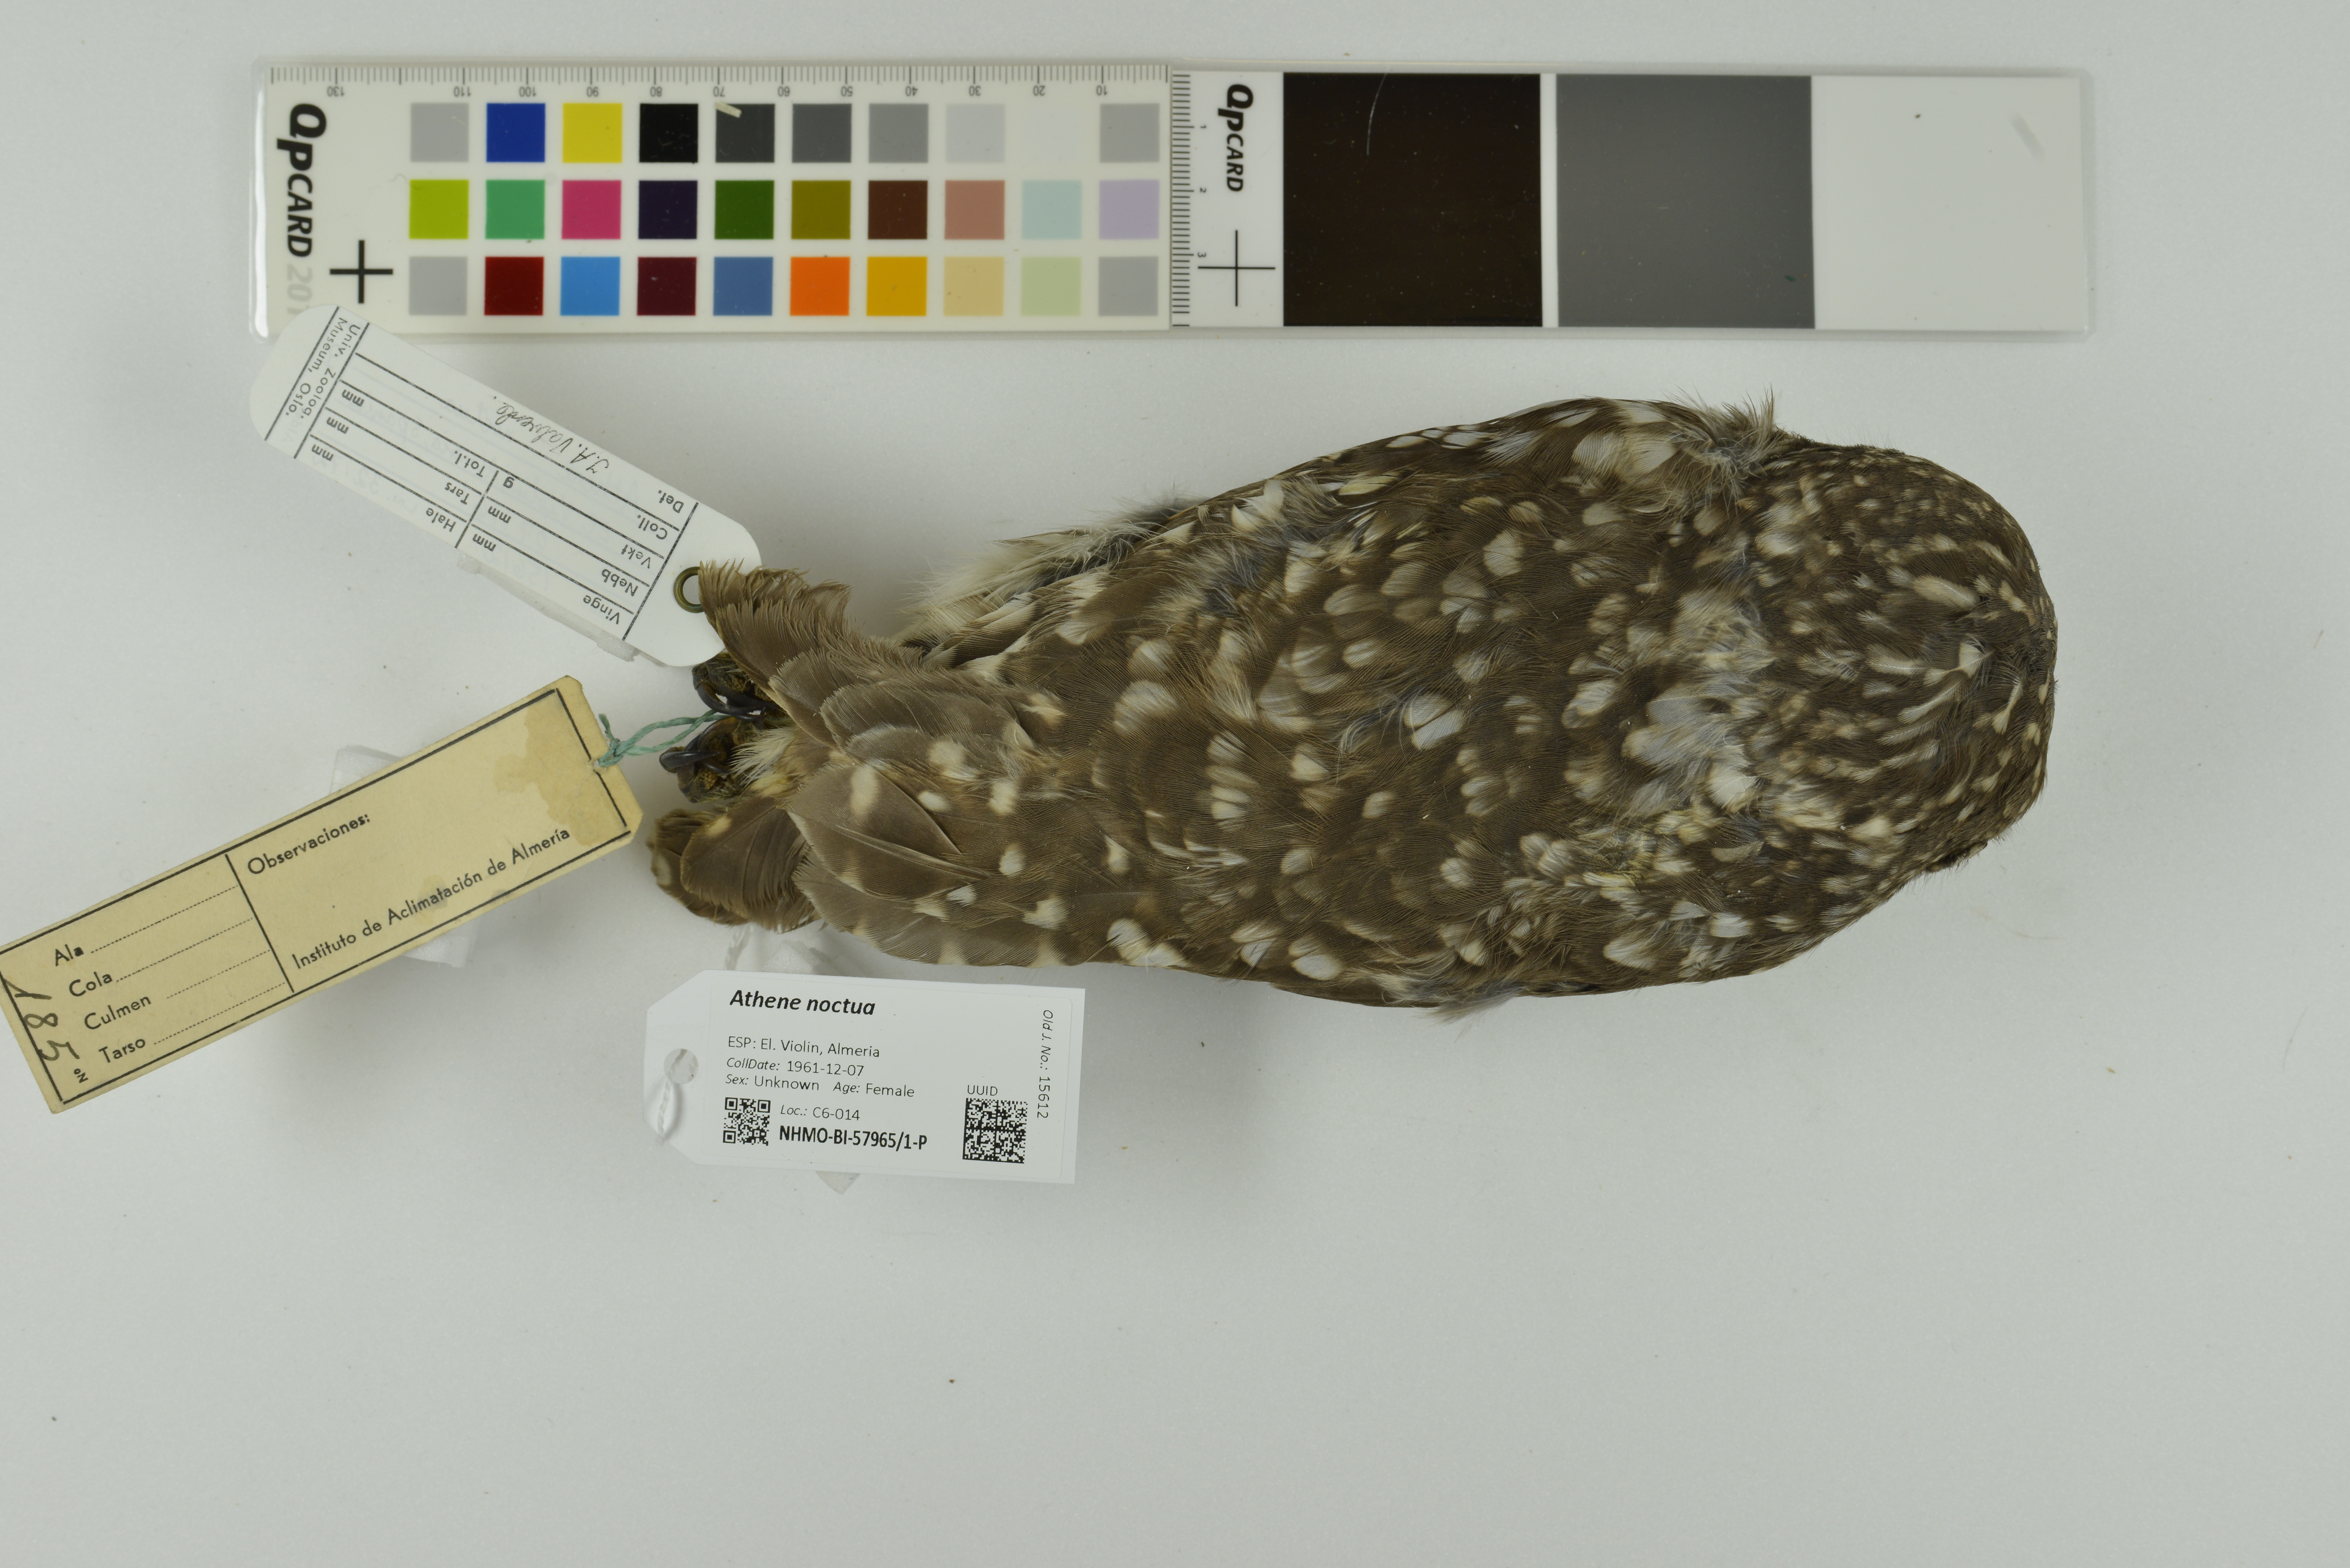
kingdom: Animalia
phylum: Chordata
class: Aves
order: Strigiformes
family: Strigidae
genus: Athene
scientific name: Athene noctua
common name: Little owl
